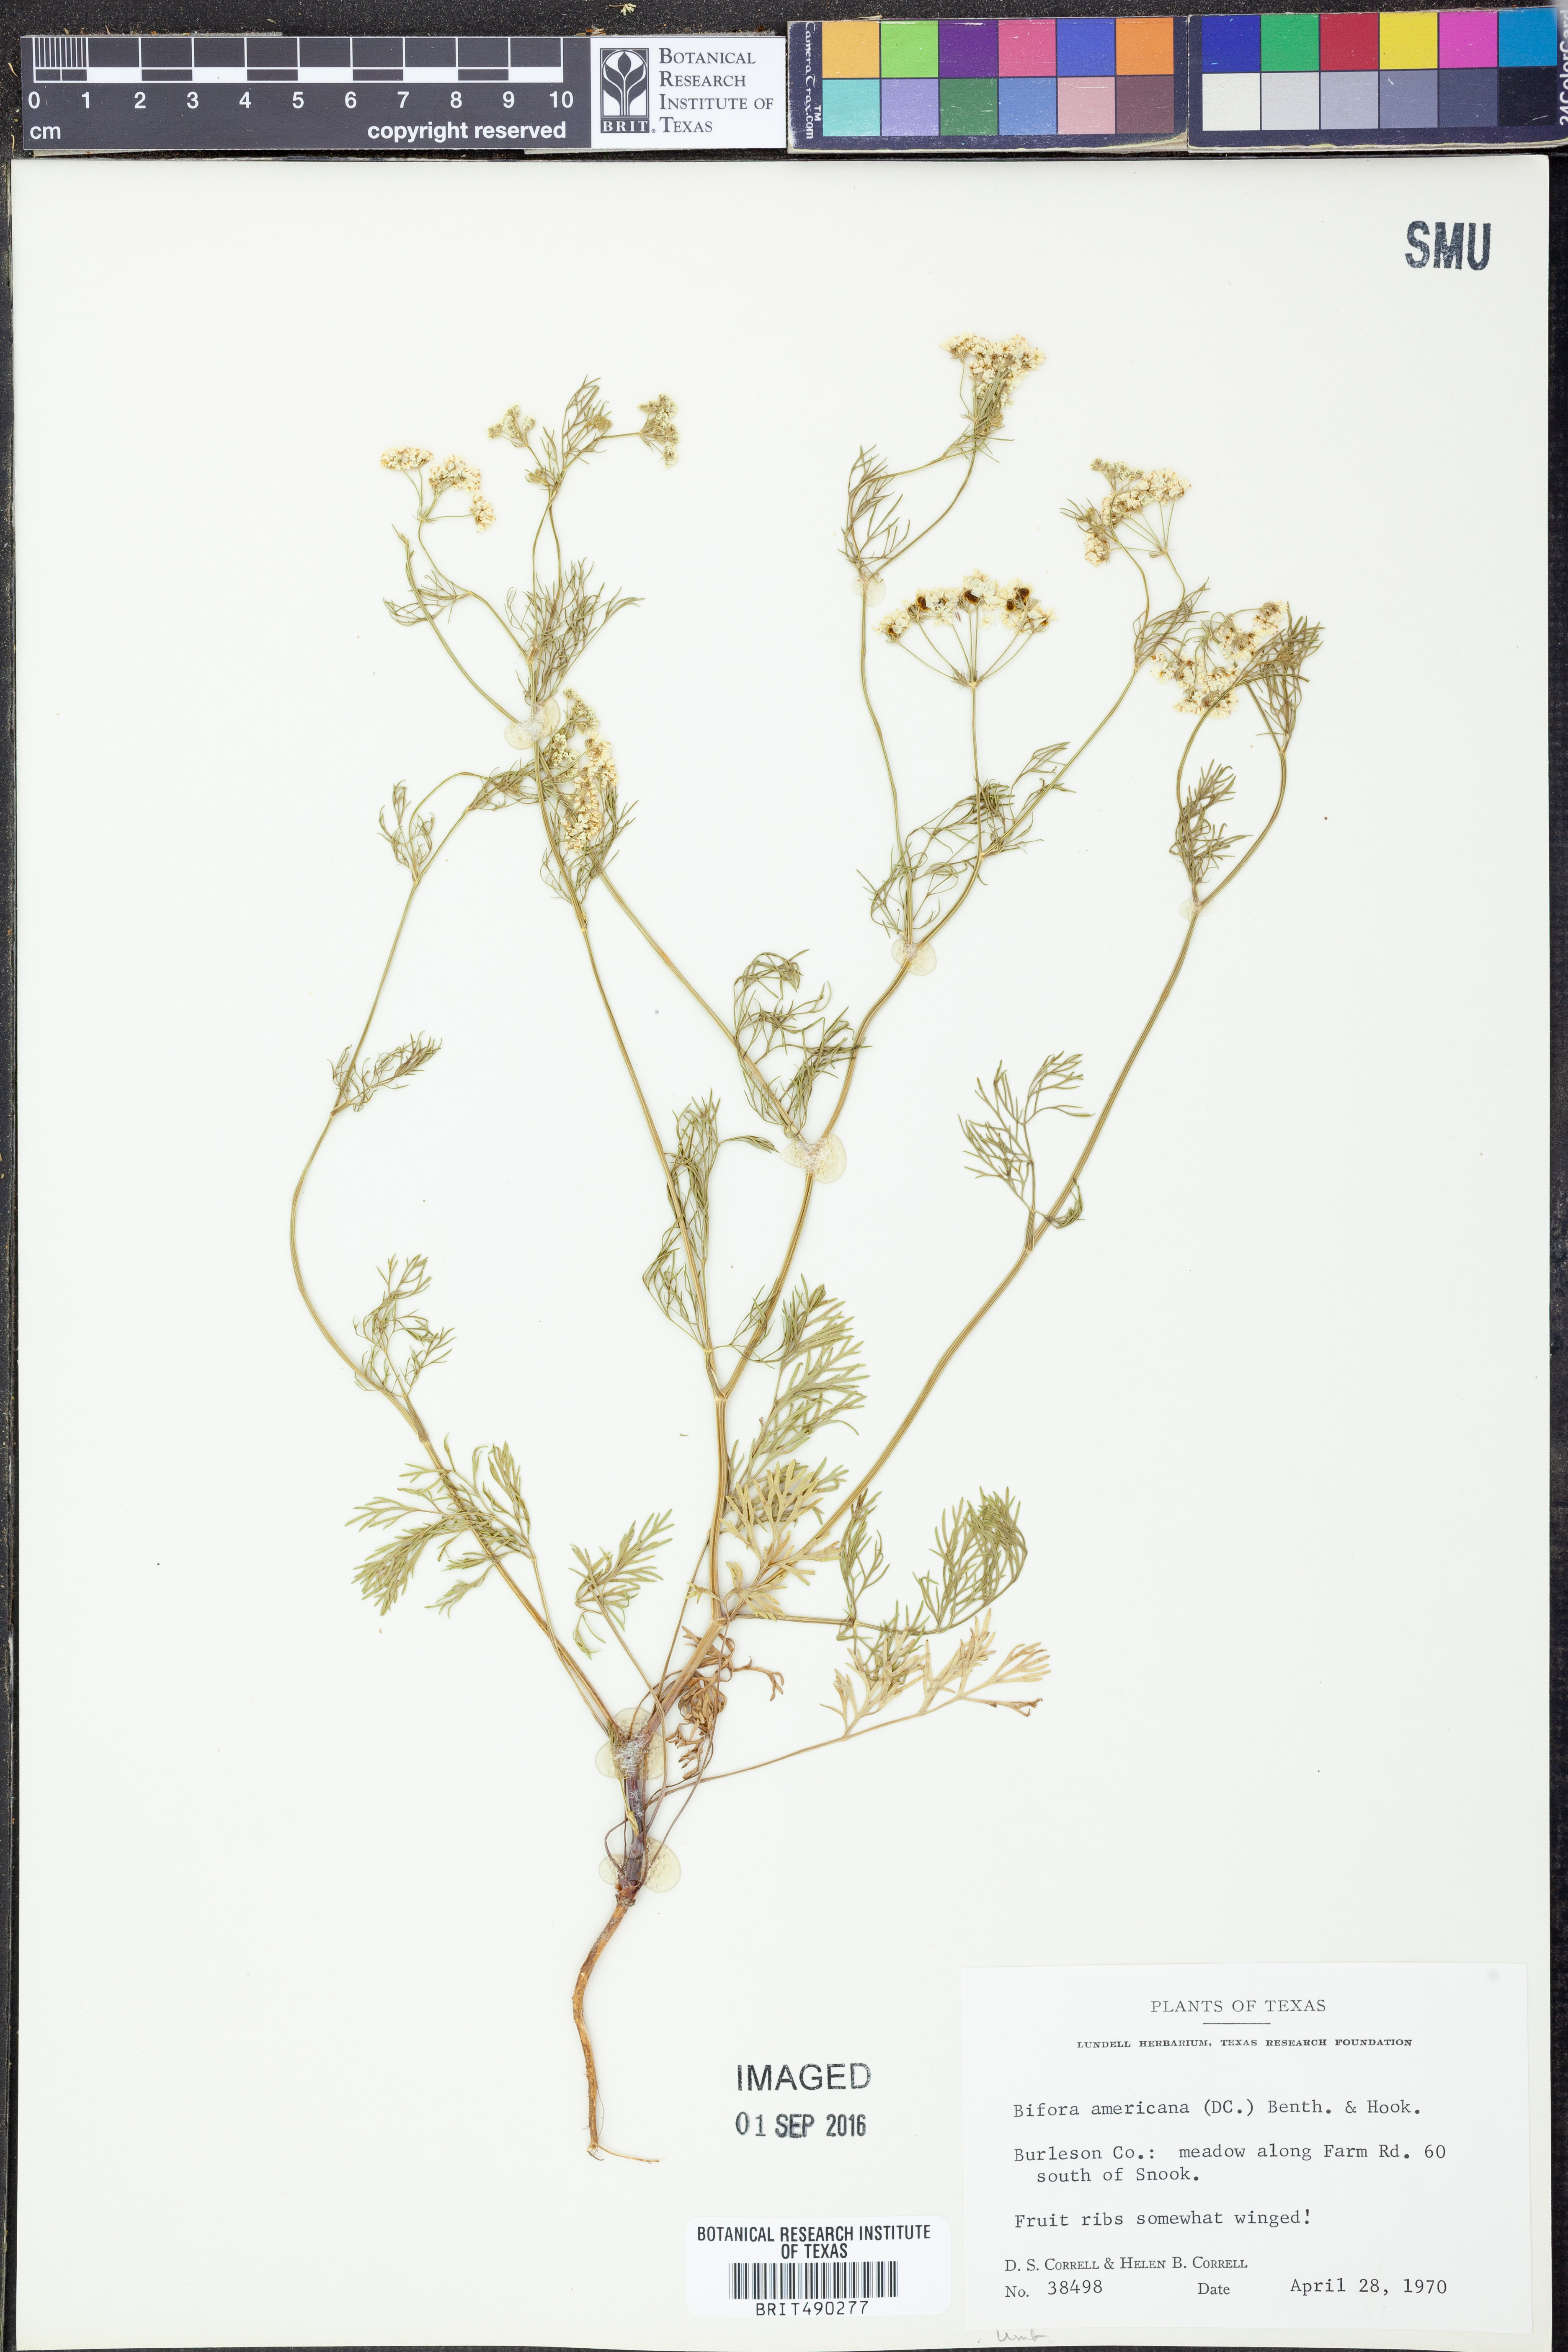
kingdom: Plantae
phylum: Tracheophyta
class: Magnoliopsida
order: Apiales
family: Apiaceae
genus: Atrema
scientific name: Atrema americanum
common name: Prairie-bishop
